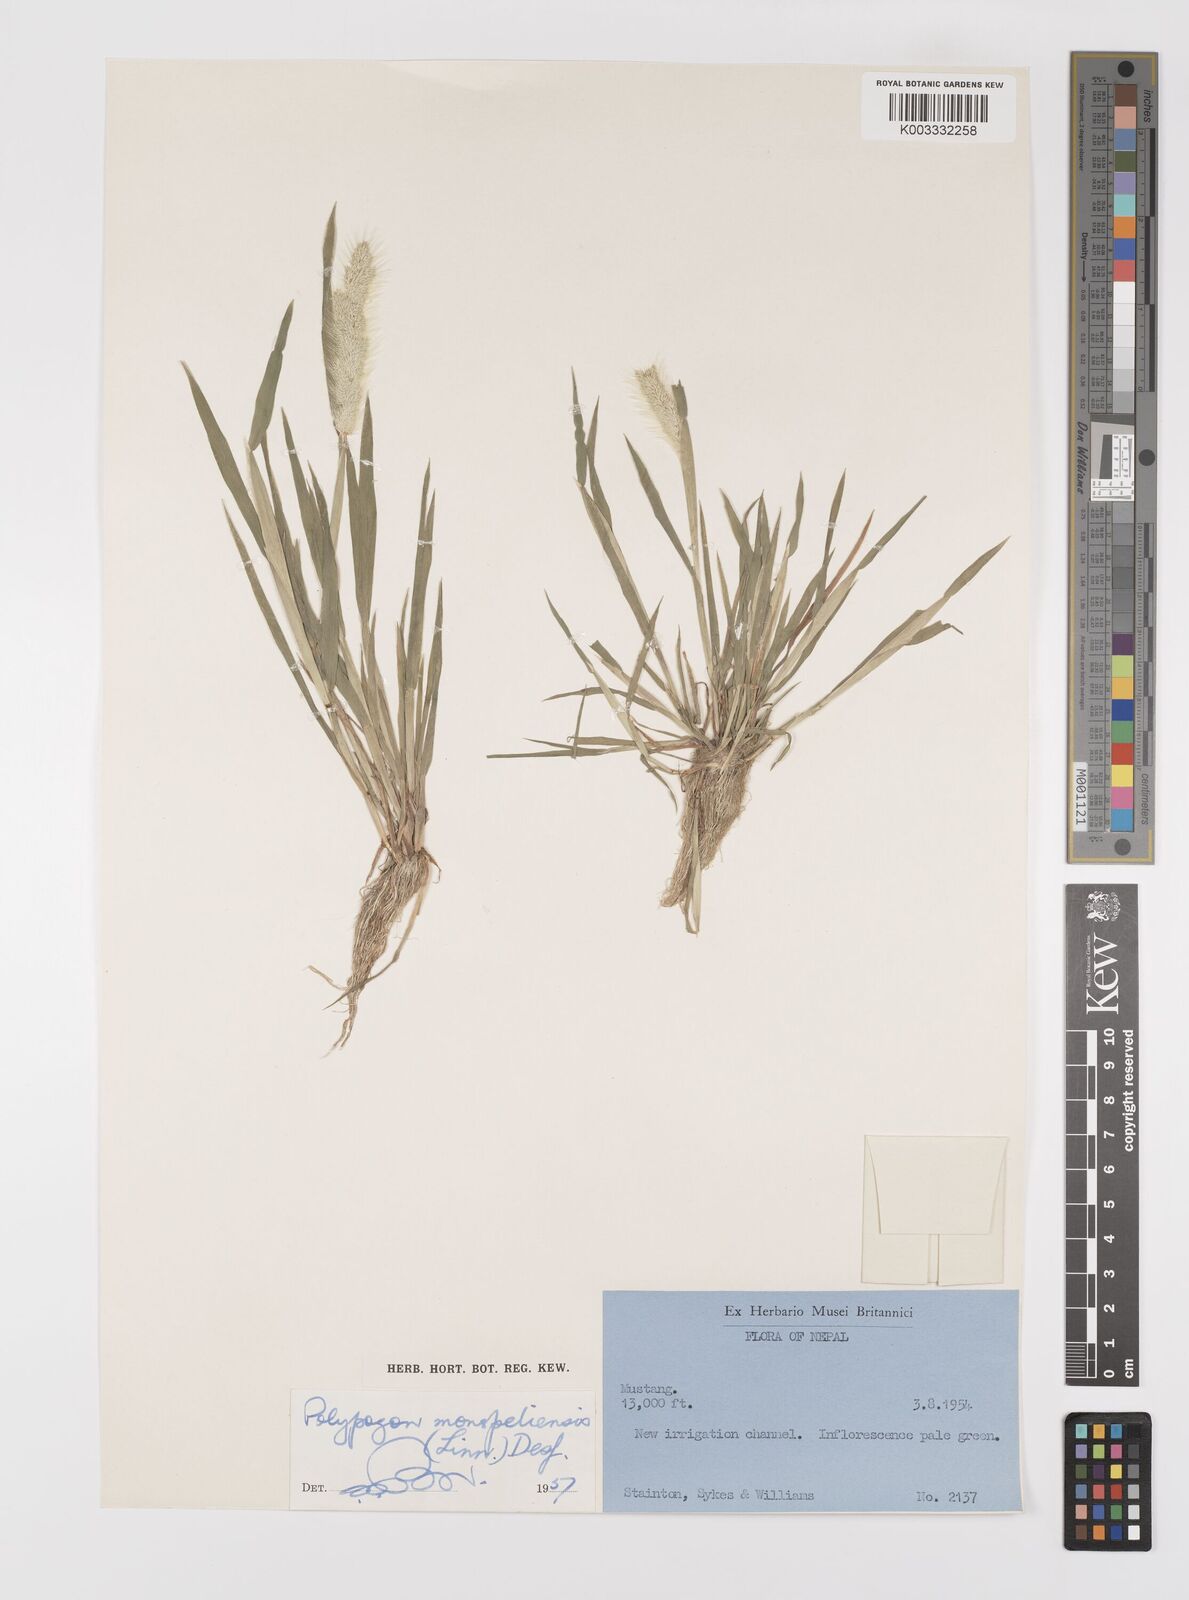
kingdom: Plantae
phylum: Tracheophyta
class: Liliopsida
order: Poales
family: Poaceae
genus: Polypogon
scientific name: Polypogon monspeliensis
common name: Annual rabbitsfoot grass
